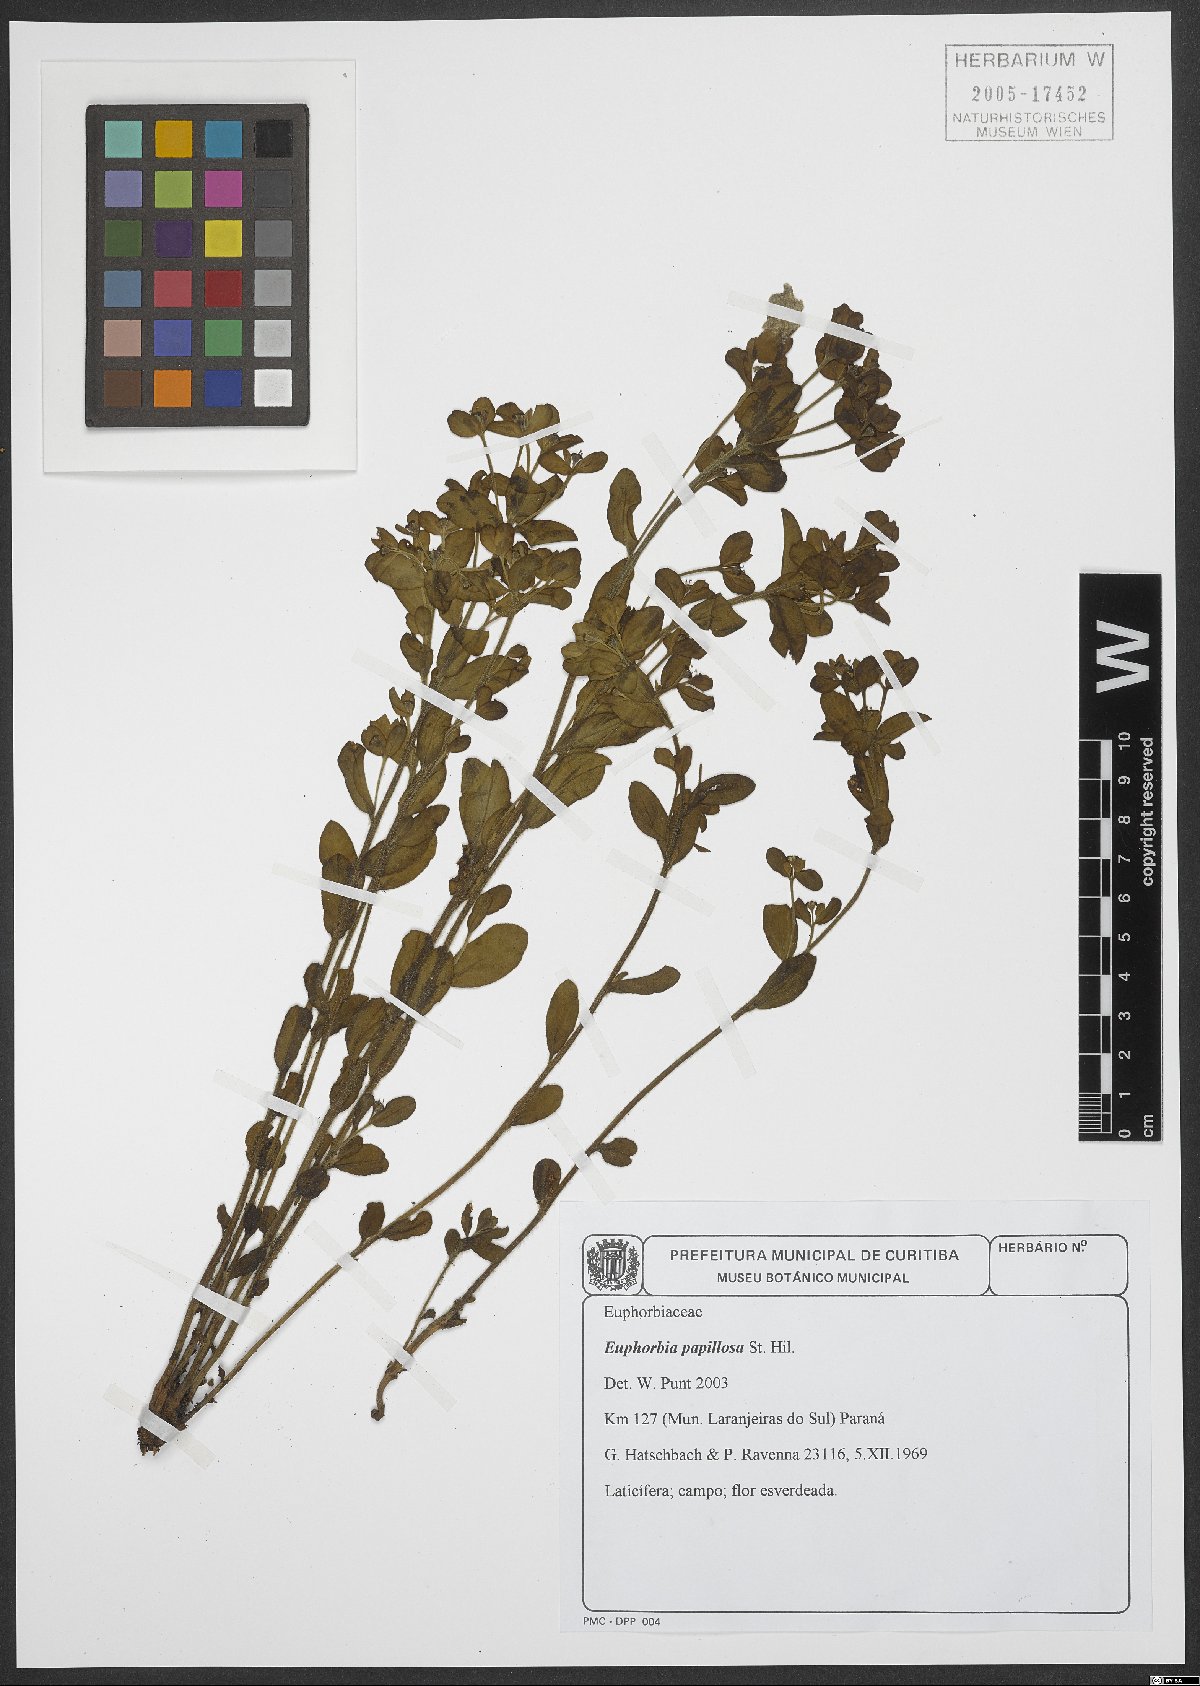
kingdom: Plantae
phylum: Tracheophyta
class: Magnoliopsida
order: Malpighiales
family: Euphorbiaceae
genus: Euphorbia
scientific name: Euphorbia papillosa
